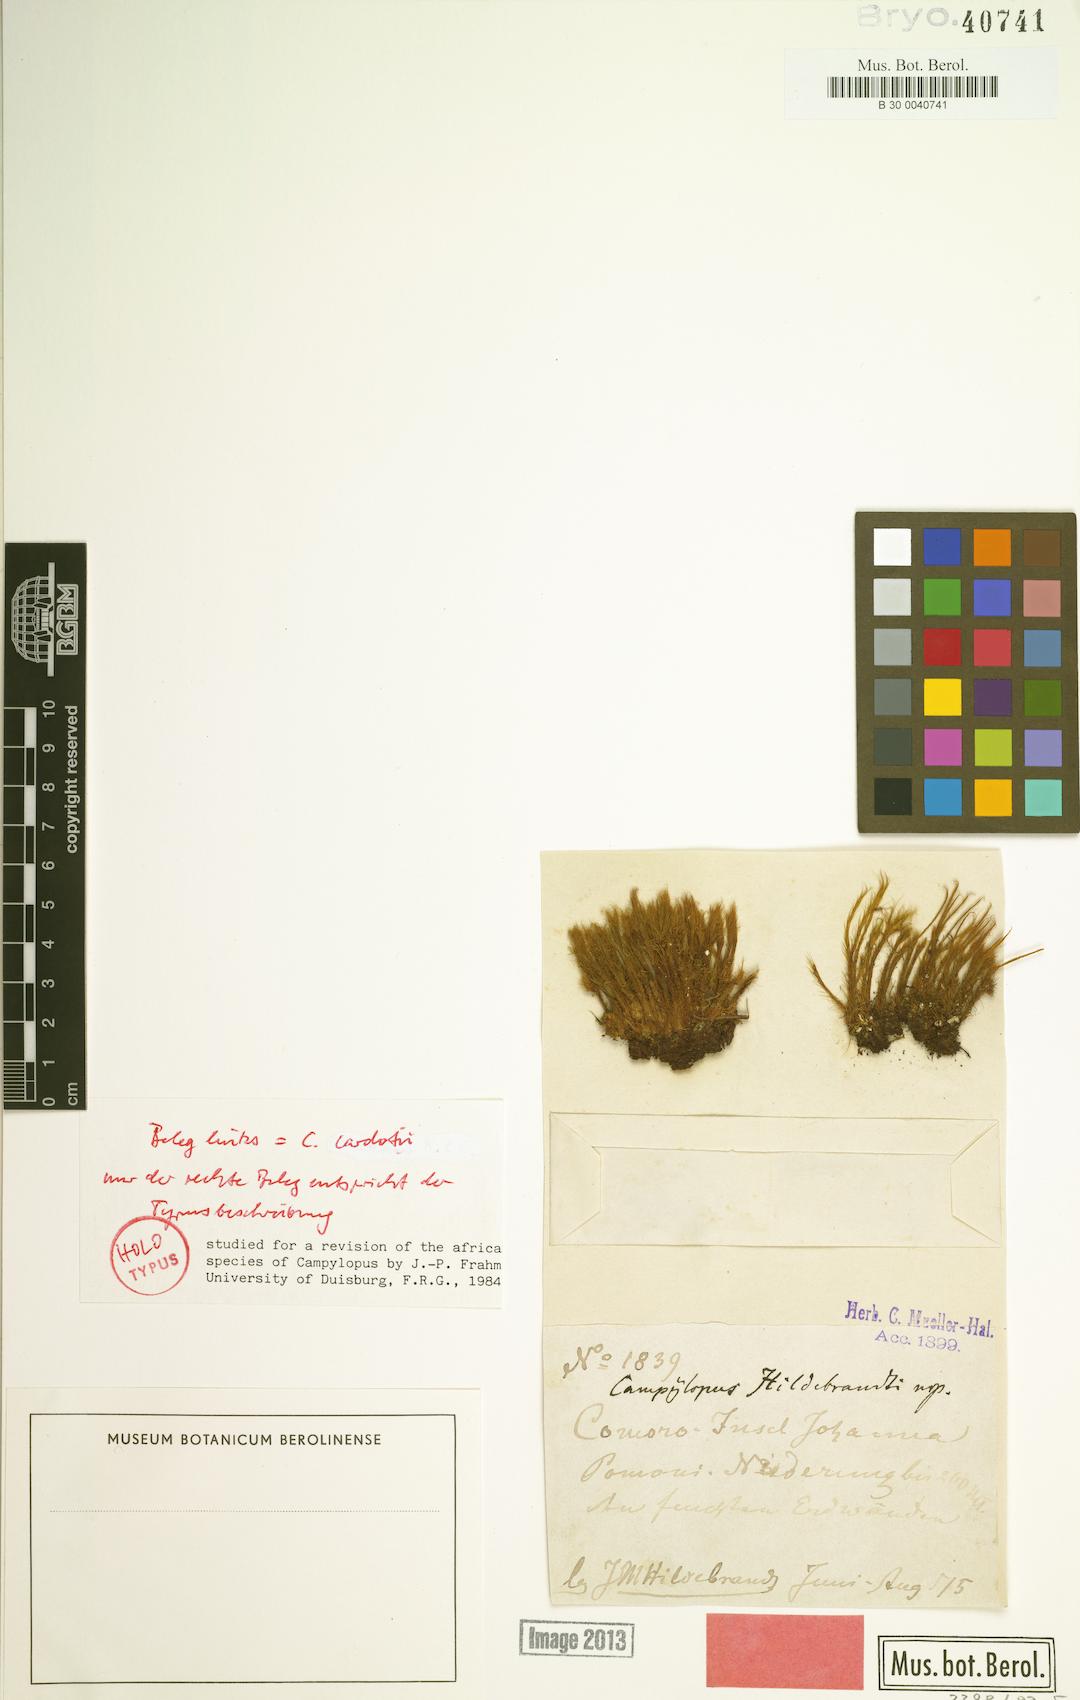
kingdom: Plantae
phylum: Bryophyta
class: Bryopsida
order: Dicranales
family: Leucobryaceae
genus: Campylopus
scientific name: Campylopus hildebrandtii
